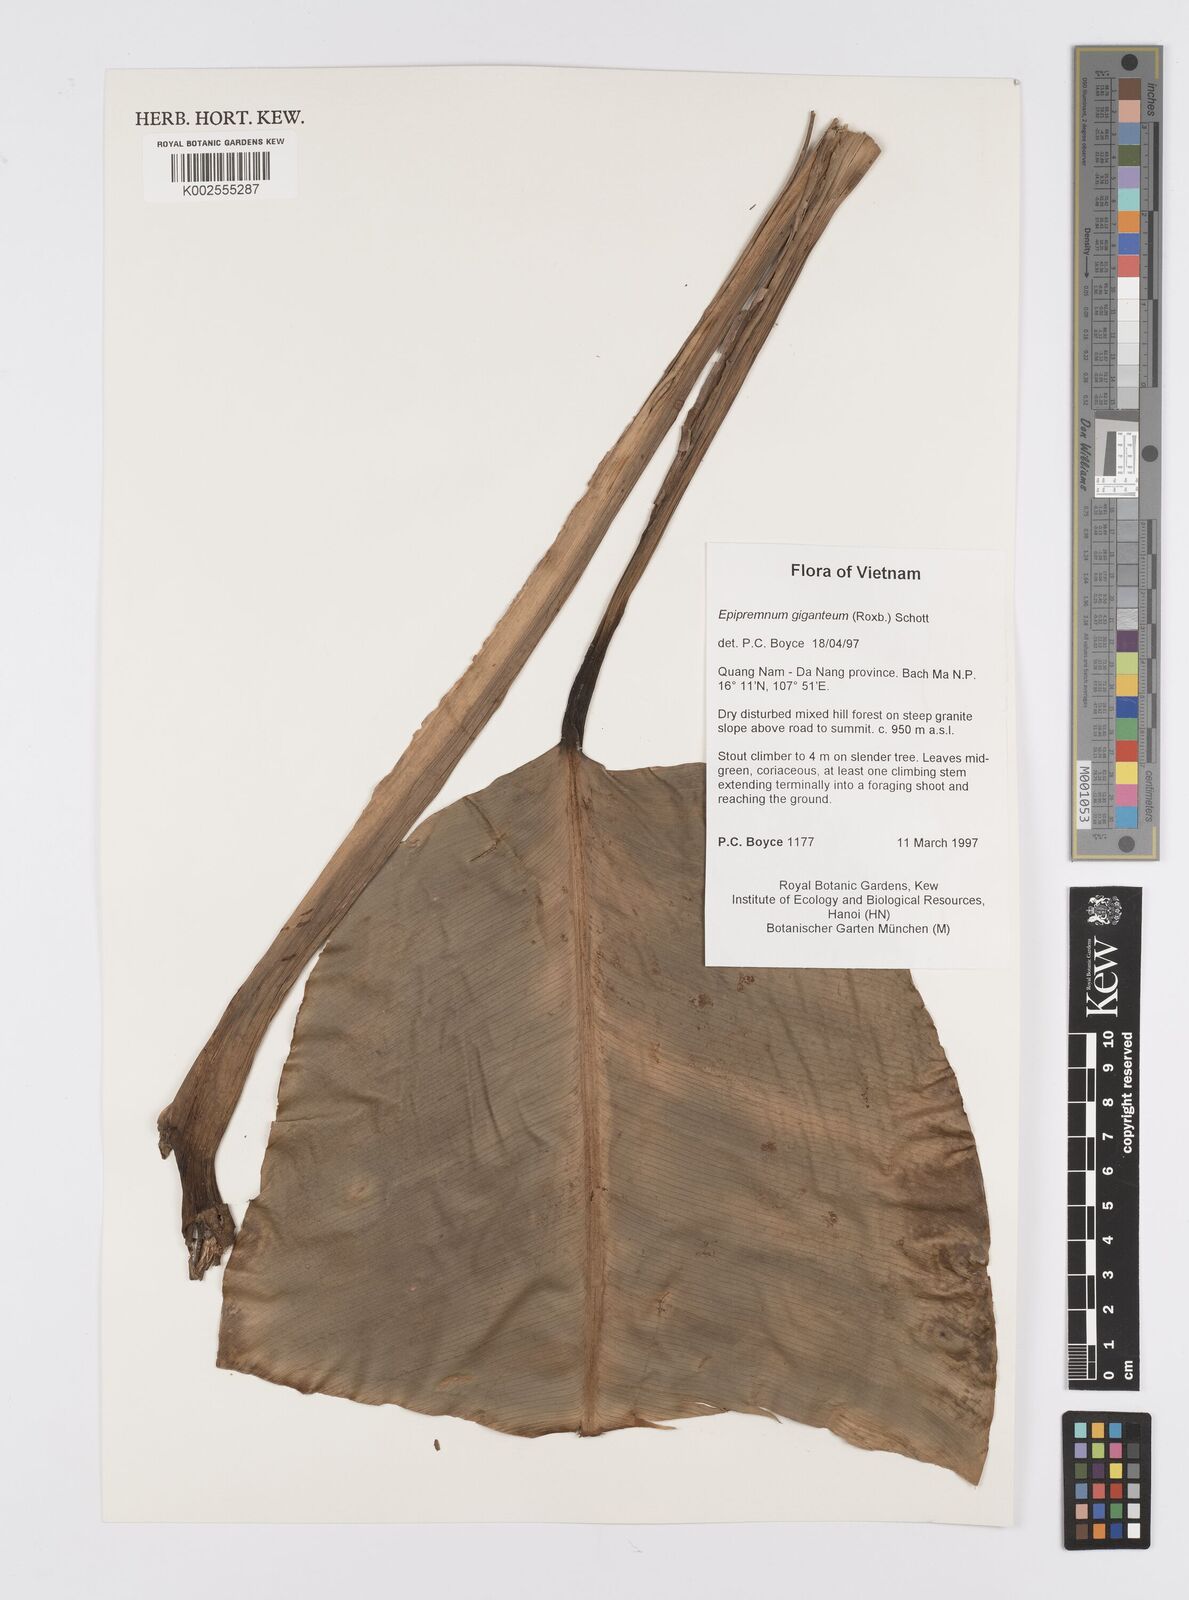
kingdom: Plantae
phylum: Tracheophyta
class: Liliopsida
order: Alismatales
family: Araceae
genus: Epipremnum
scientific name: Epipremnum giganteum
